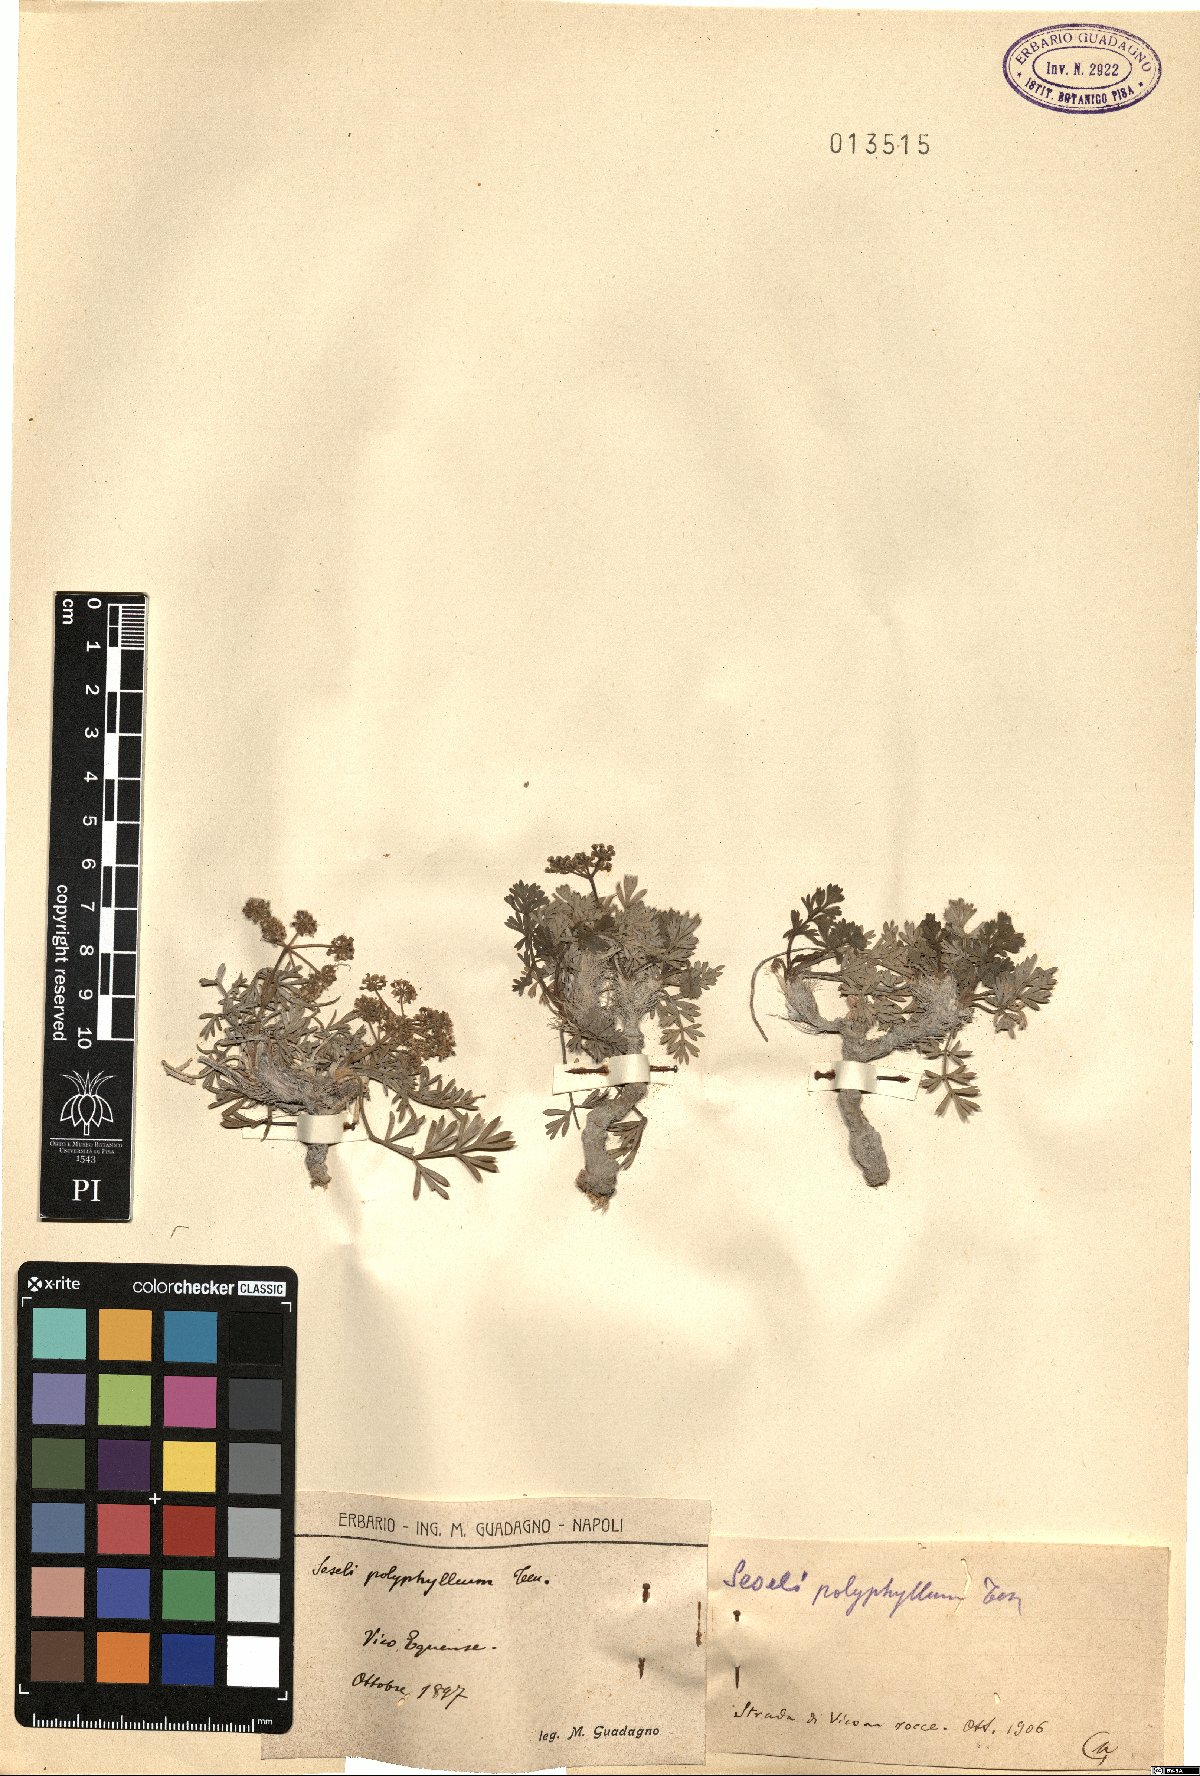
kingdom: Plantae
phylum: Tracheophyta
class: Magnoliopsida
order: Apiales
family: Apiaceae
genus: Seseli
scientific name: Seseli polyphyllum
